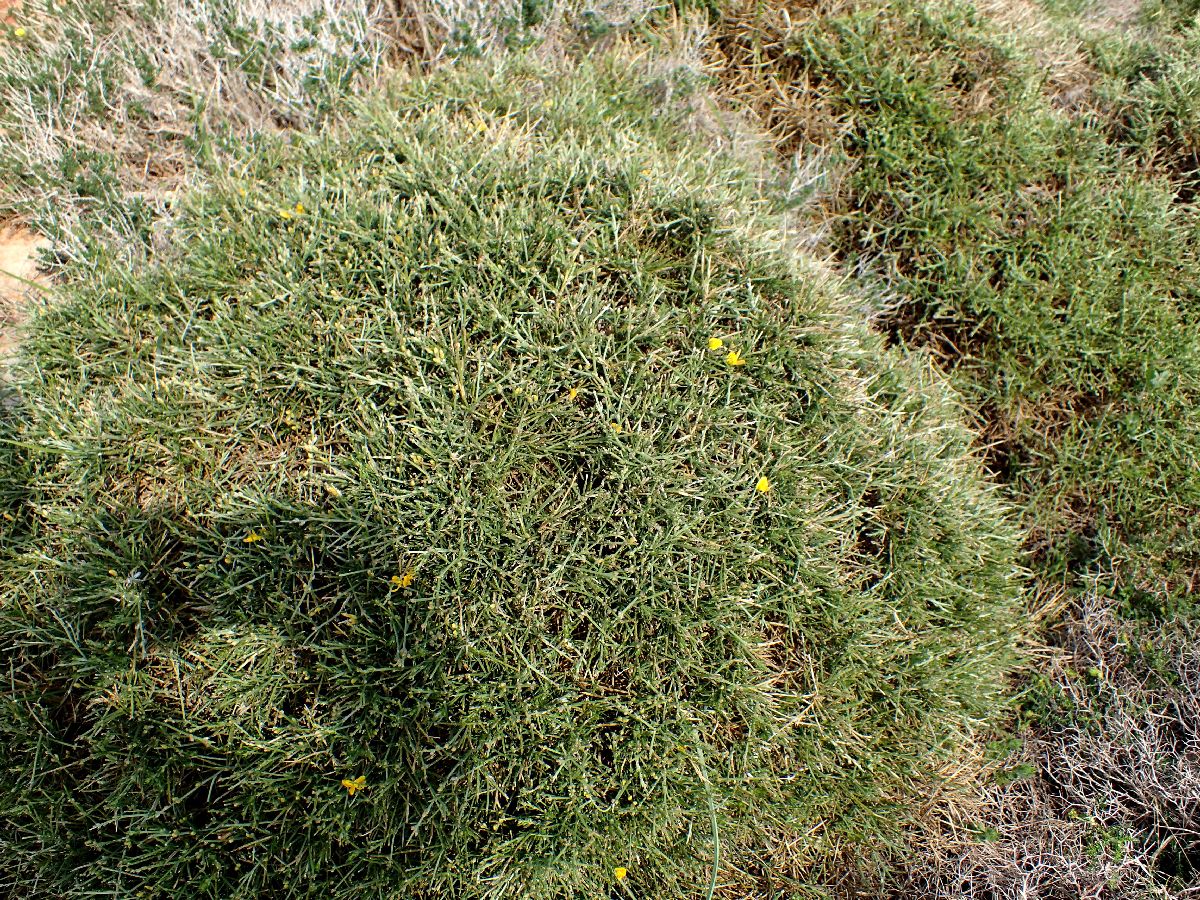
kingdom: Plantae
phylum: Tracheophyta
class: Magnoliopsida
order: Fabales
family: Fabaceae
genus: Genista
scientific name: Genista acanthoclada
